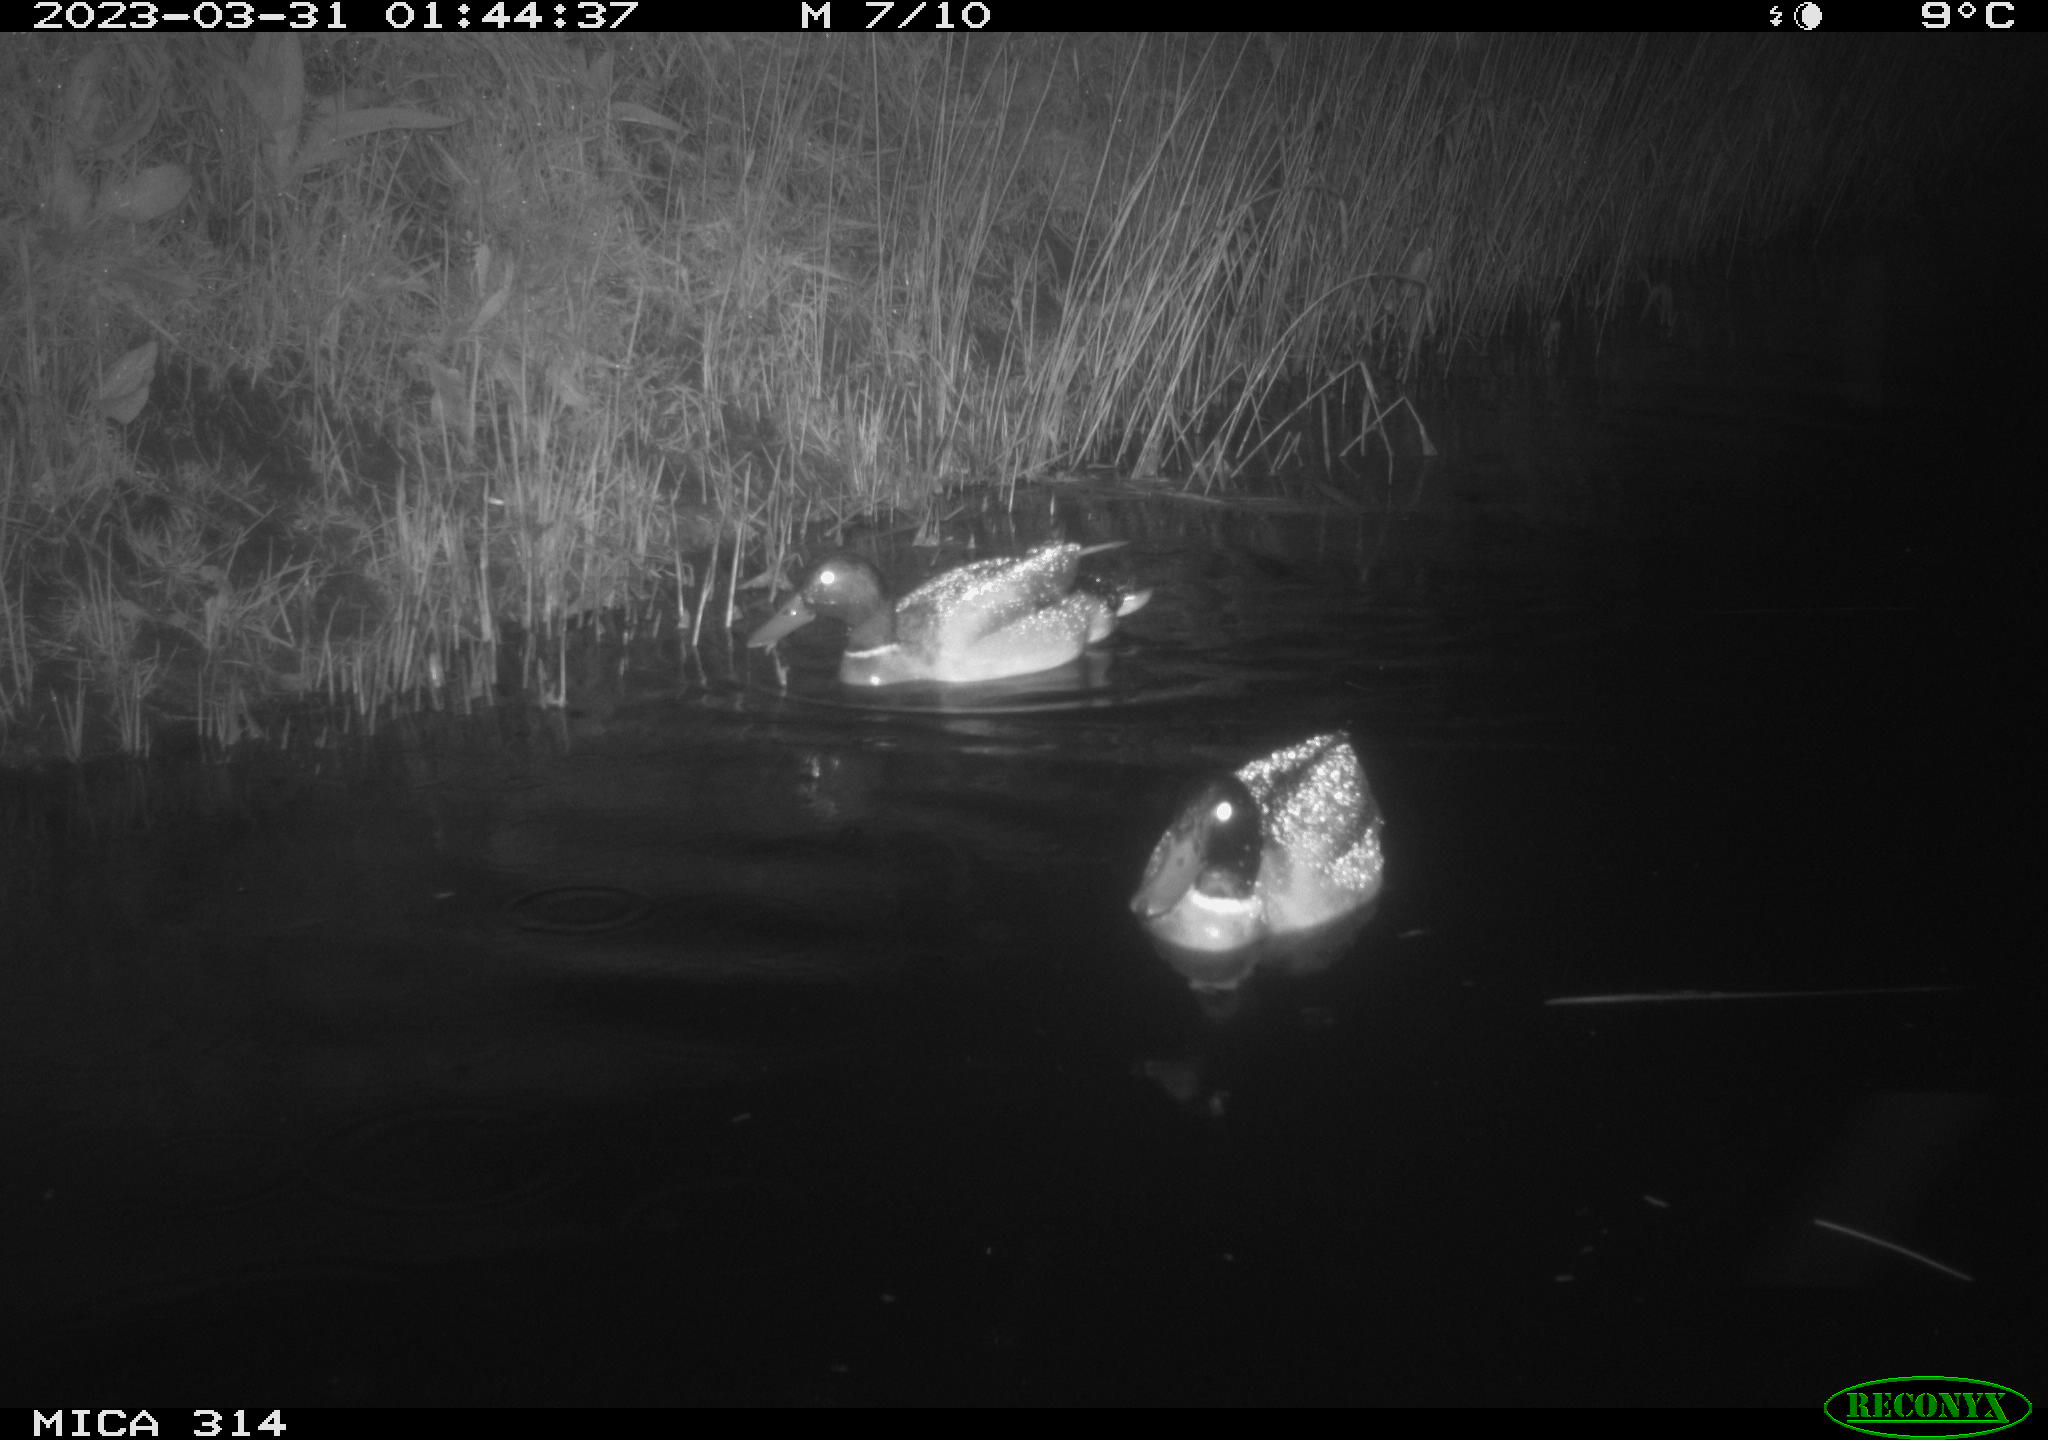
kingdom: Animalia
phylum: Chordata
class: Aves
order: Anseriformes
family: Anatidae
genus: Anas
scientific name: Anas
